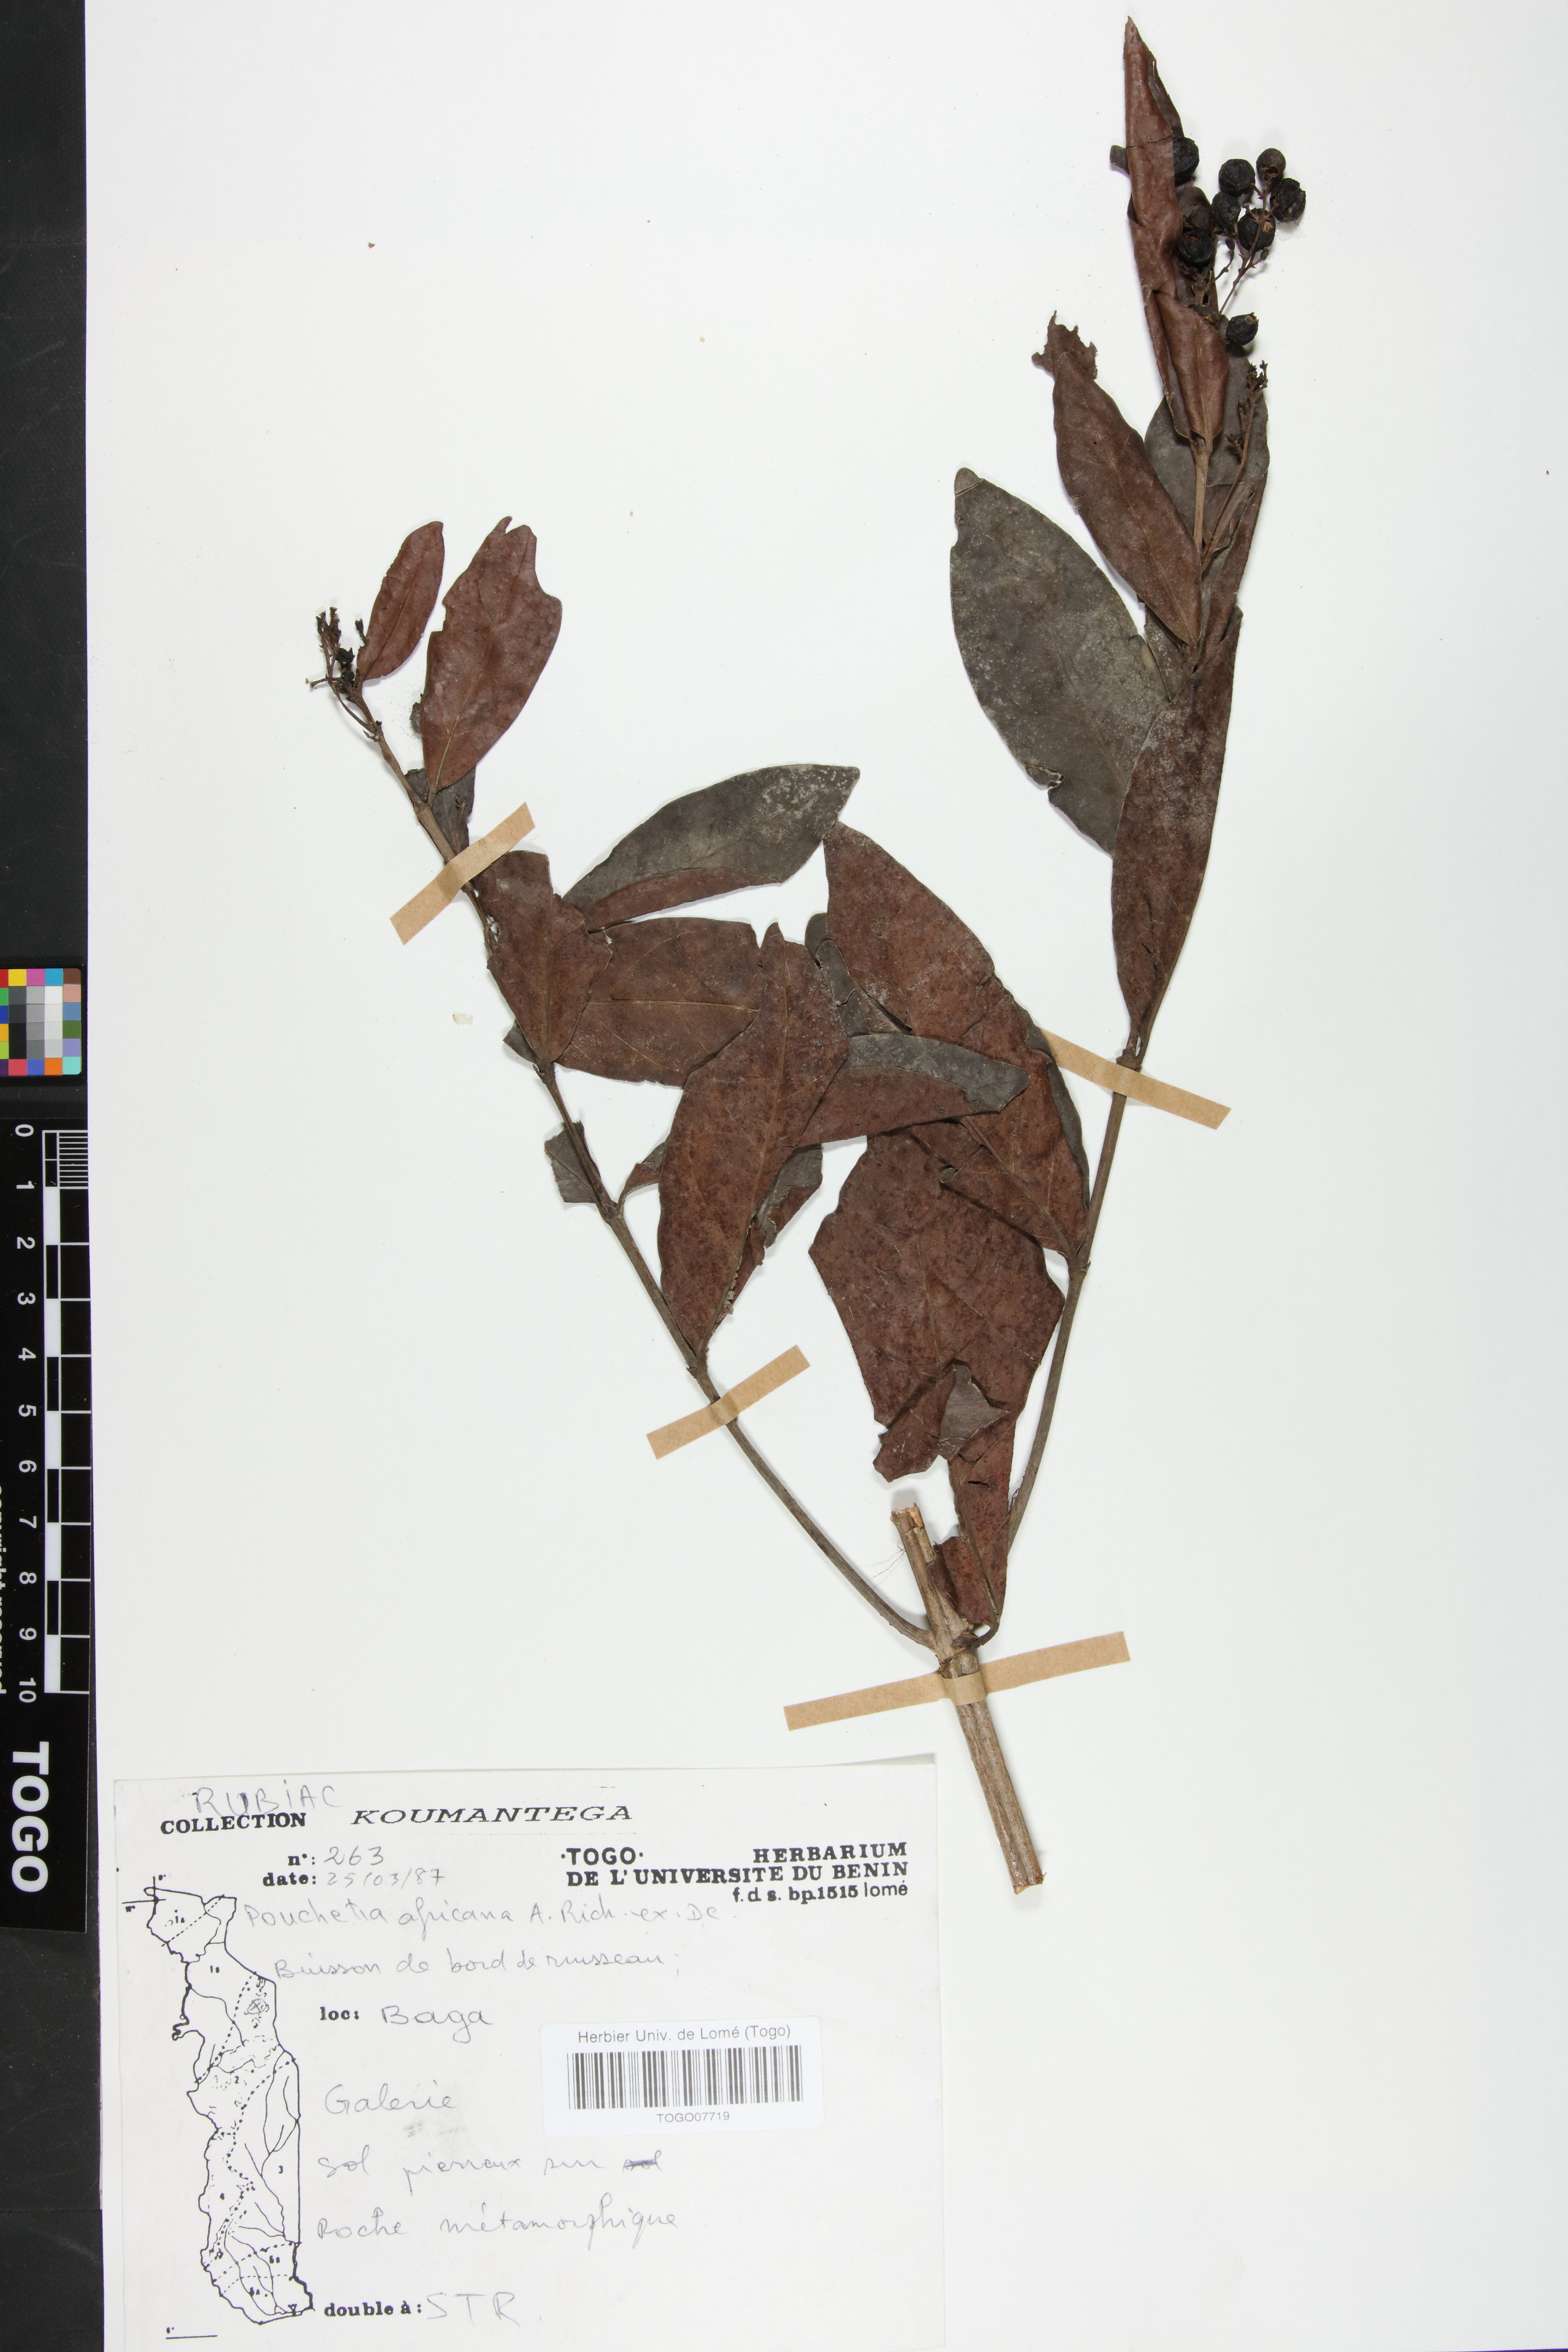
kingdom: Plantae
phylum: Tracheophyta
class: Magnoliopsida
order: Gentianales
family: Rubiaceae
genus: Pouchetia
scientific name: Pouchetia africana
